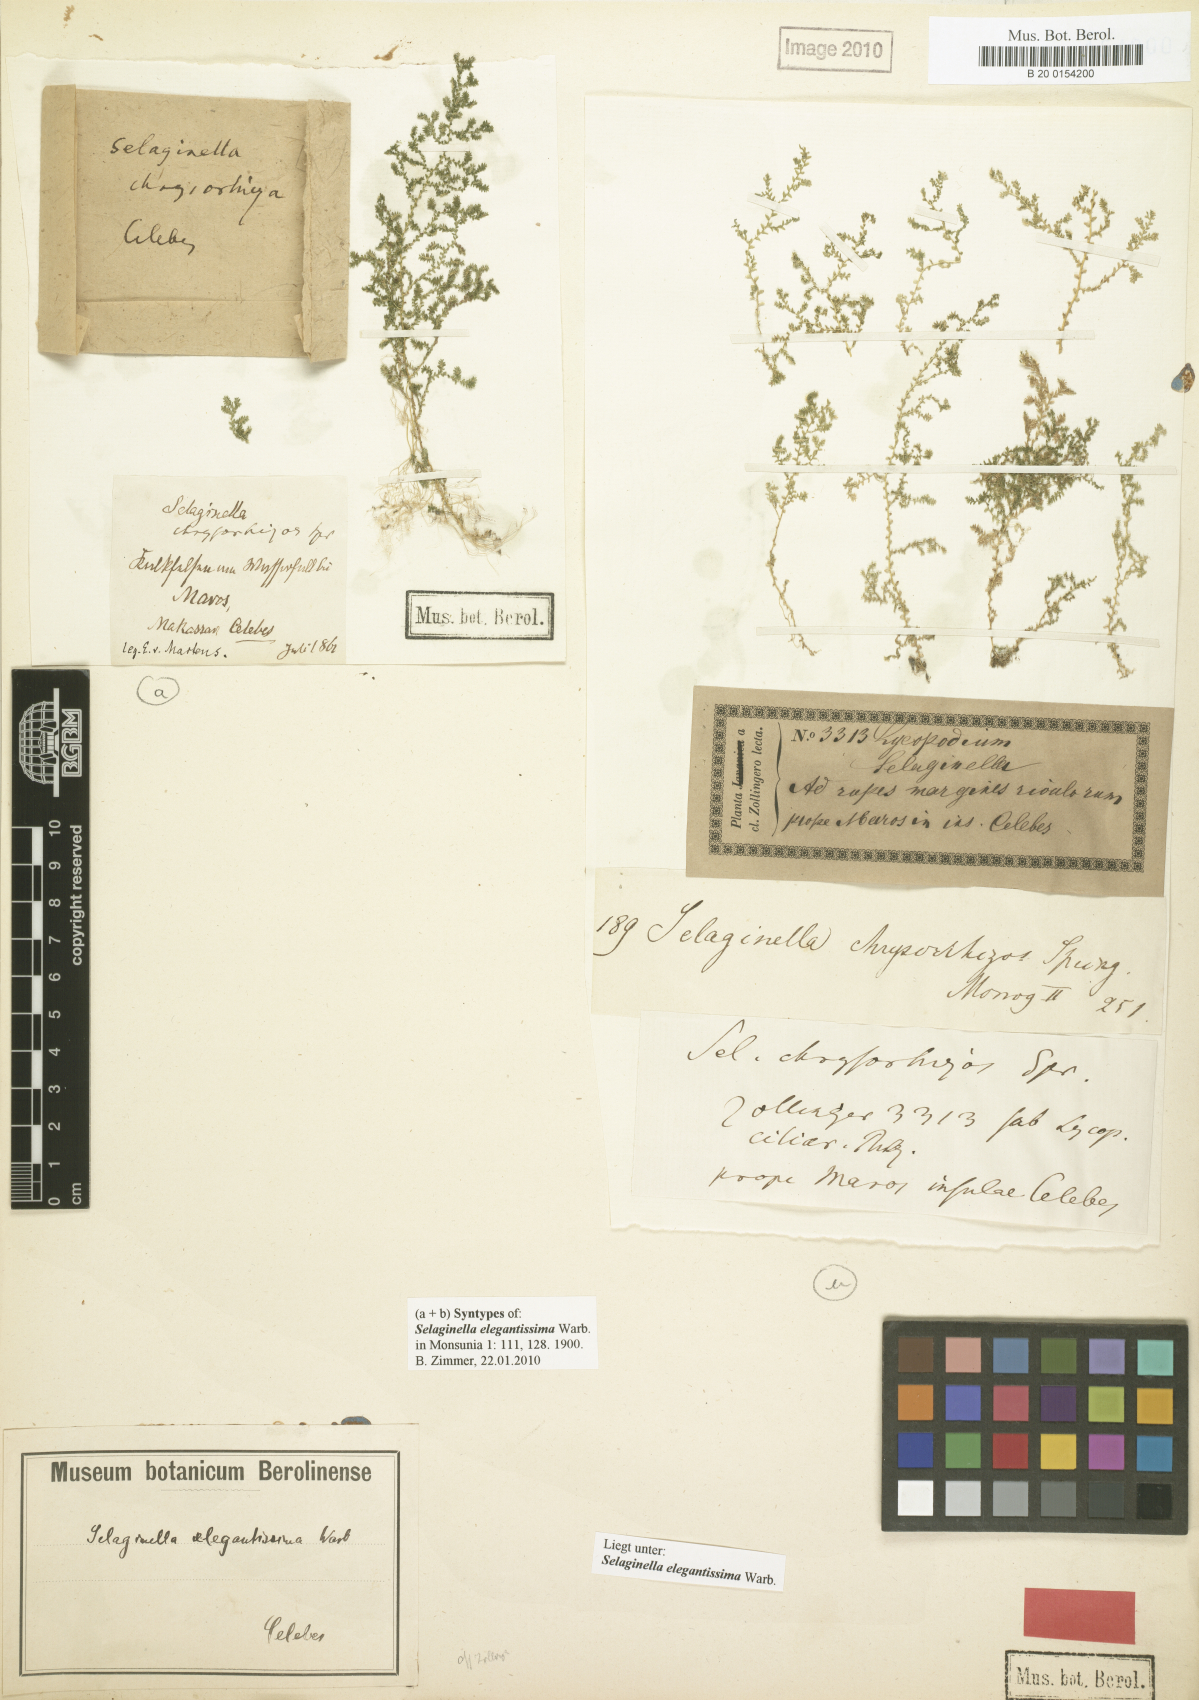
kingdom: Plantae
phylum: Tracheophyta
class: Lycopodiopsida
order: Selaginellales
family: Selaginellaceae
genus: Selaginella
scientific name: Selaginella elegantissima
